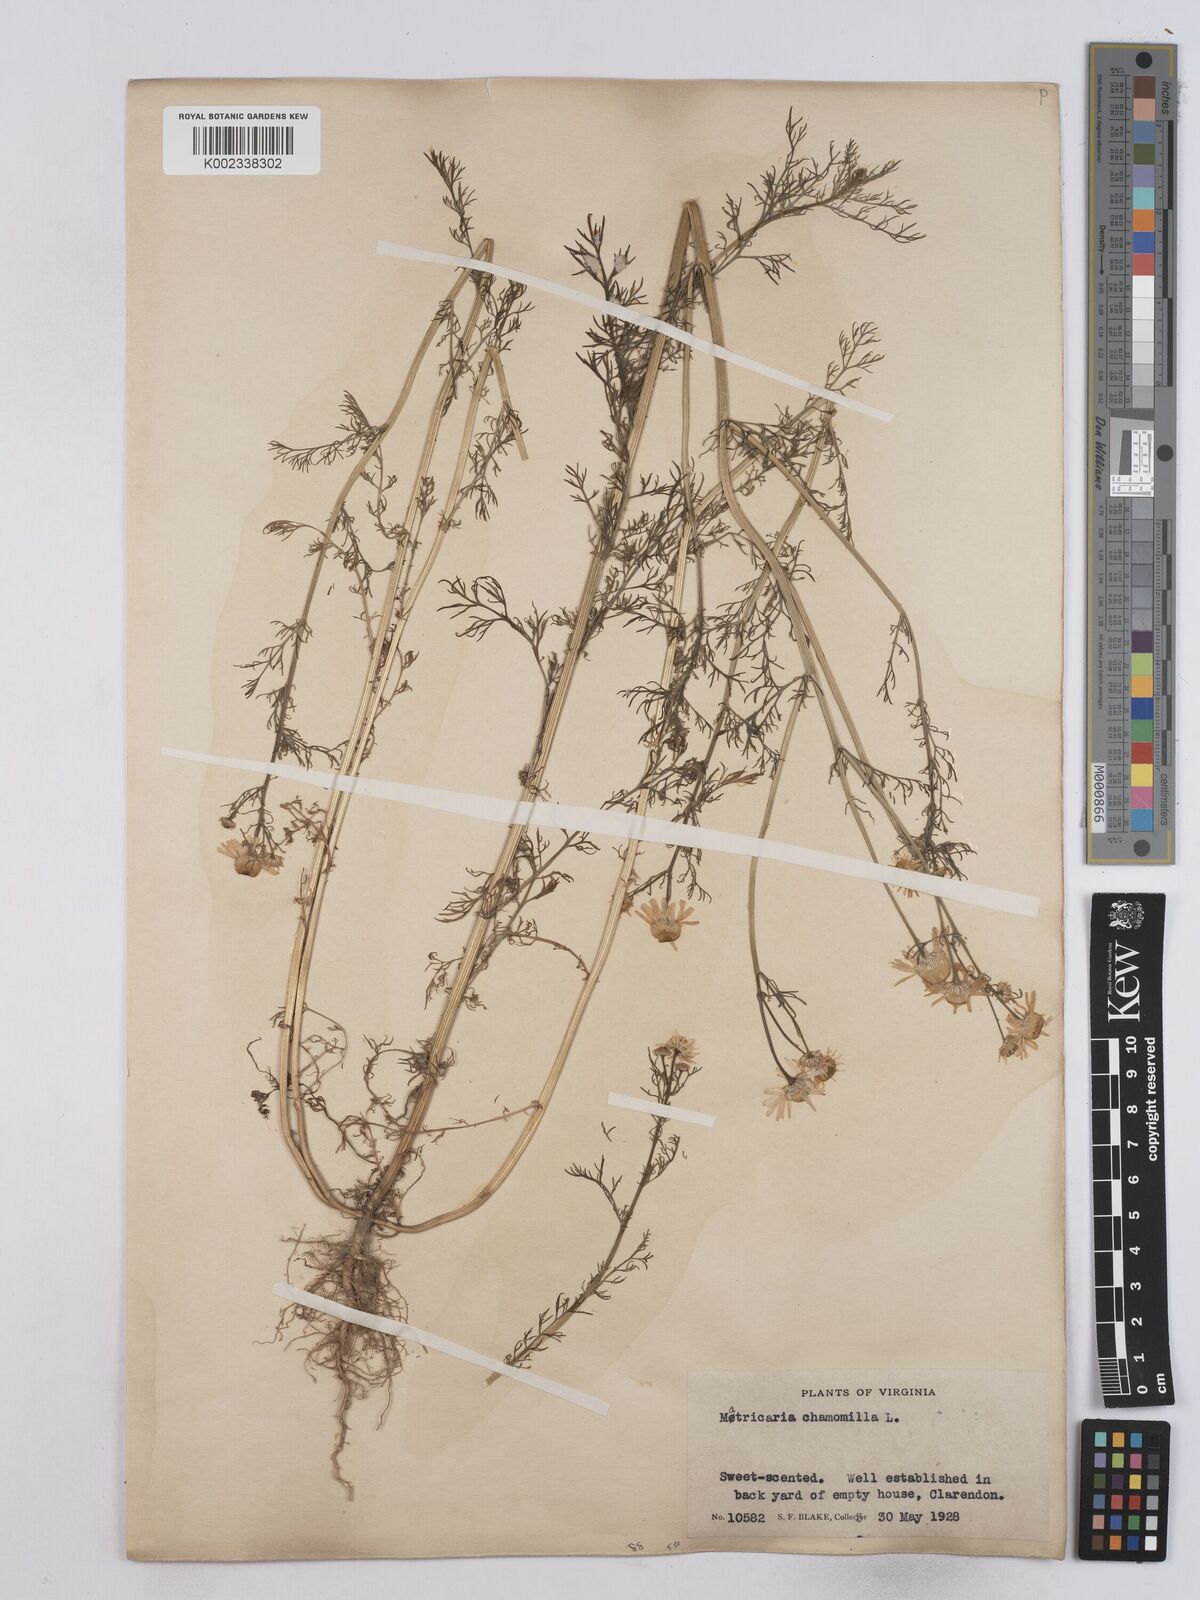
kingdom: Plantae
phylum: Tracheophyta
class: Magnoliopsida
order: Asterales
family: Asteraceae
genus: Matricaria
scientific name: Matricaria chamomilla
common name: Scented mayweed
